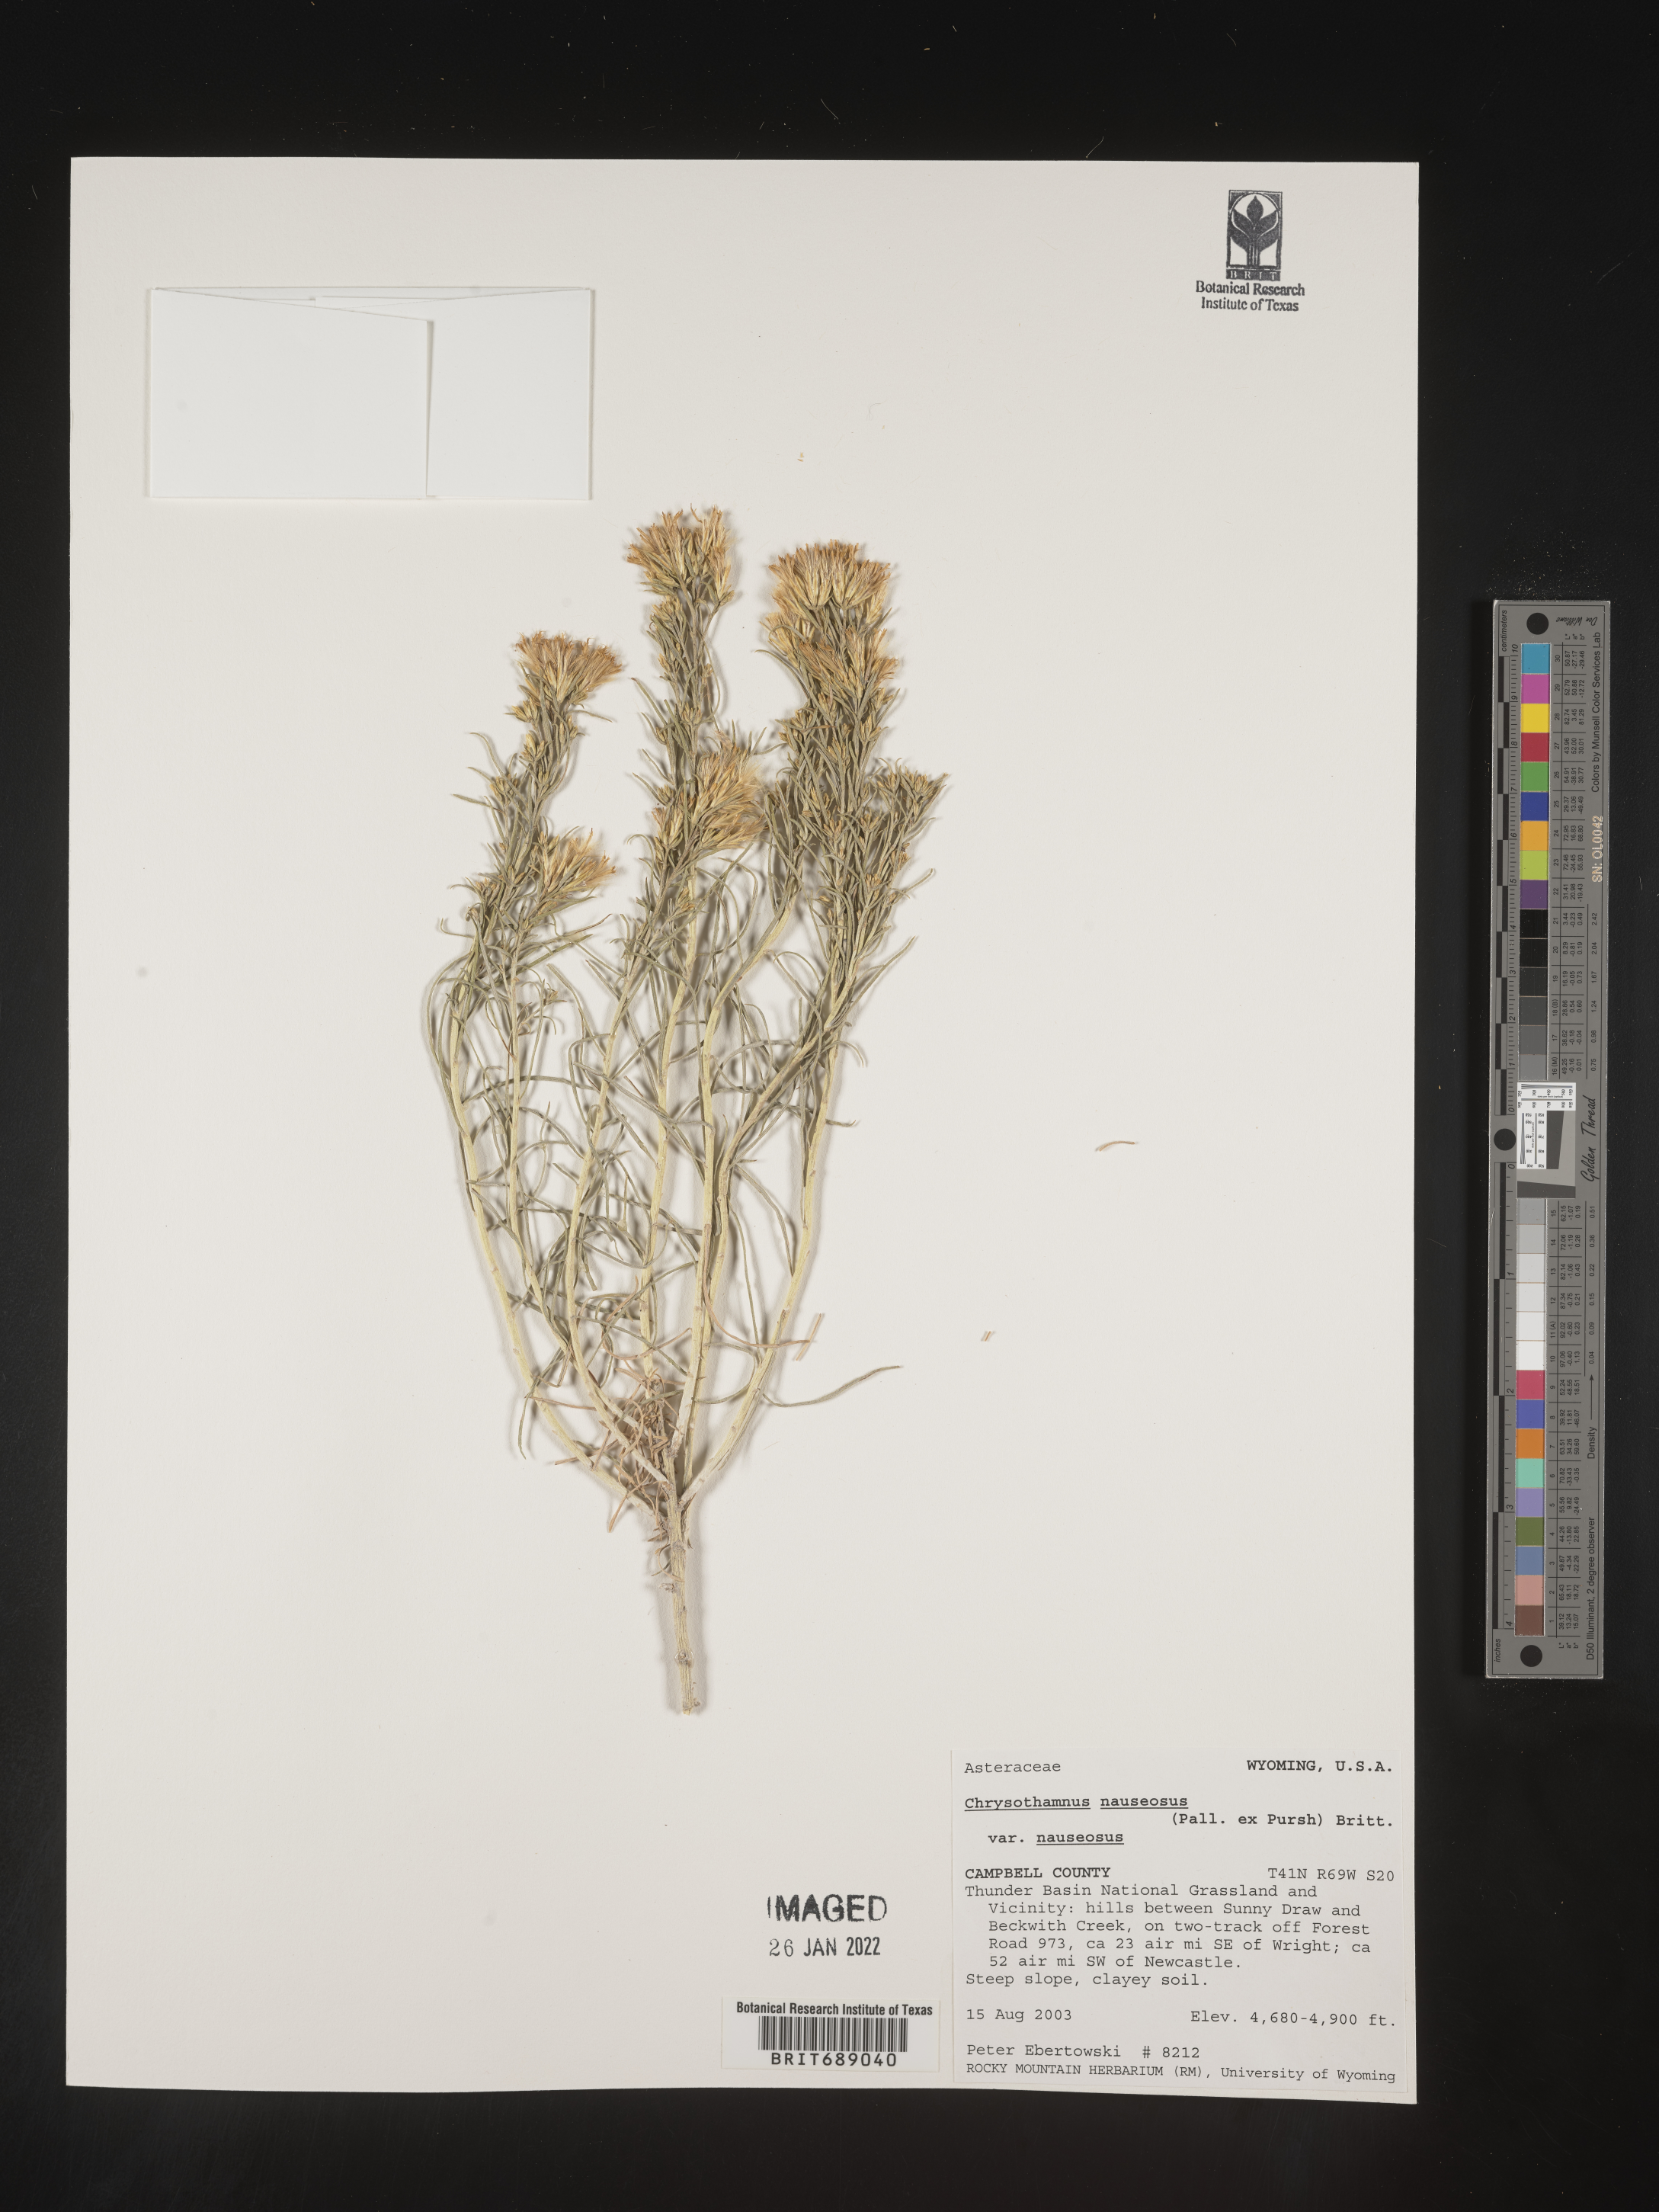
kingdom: Plantae
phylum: Tracheophyta
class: Magnoliopsida
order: Asterales
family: Asteraceae
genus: Ericameria
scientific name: Ericameria nauseosa
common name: Rubber rabbitbrush
